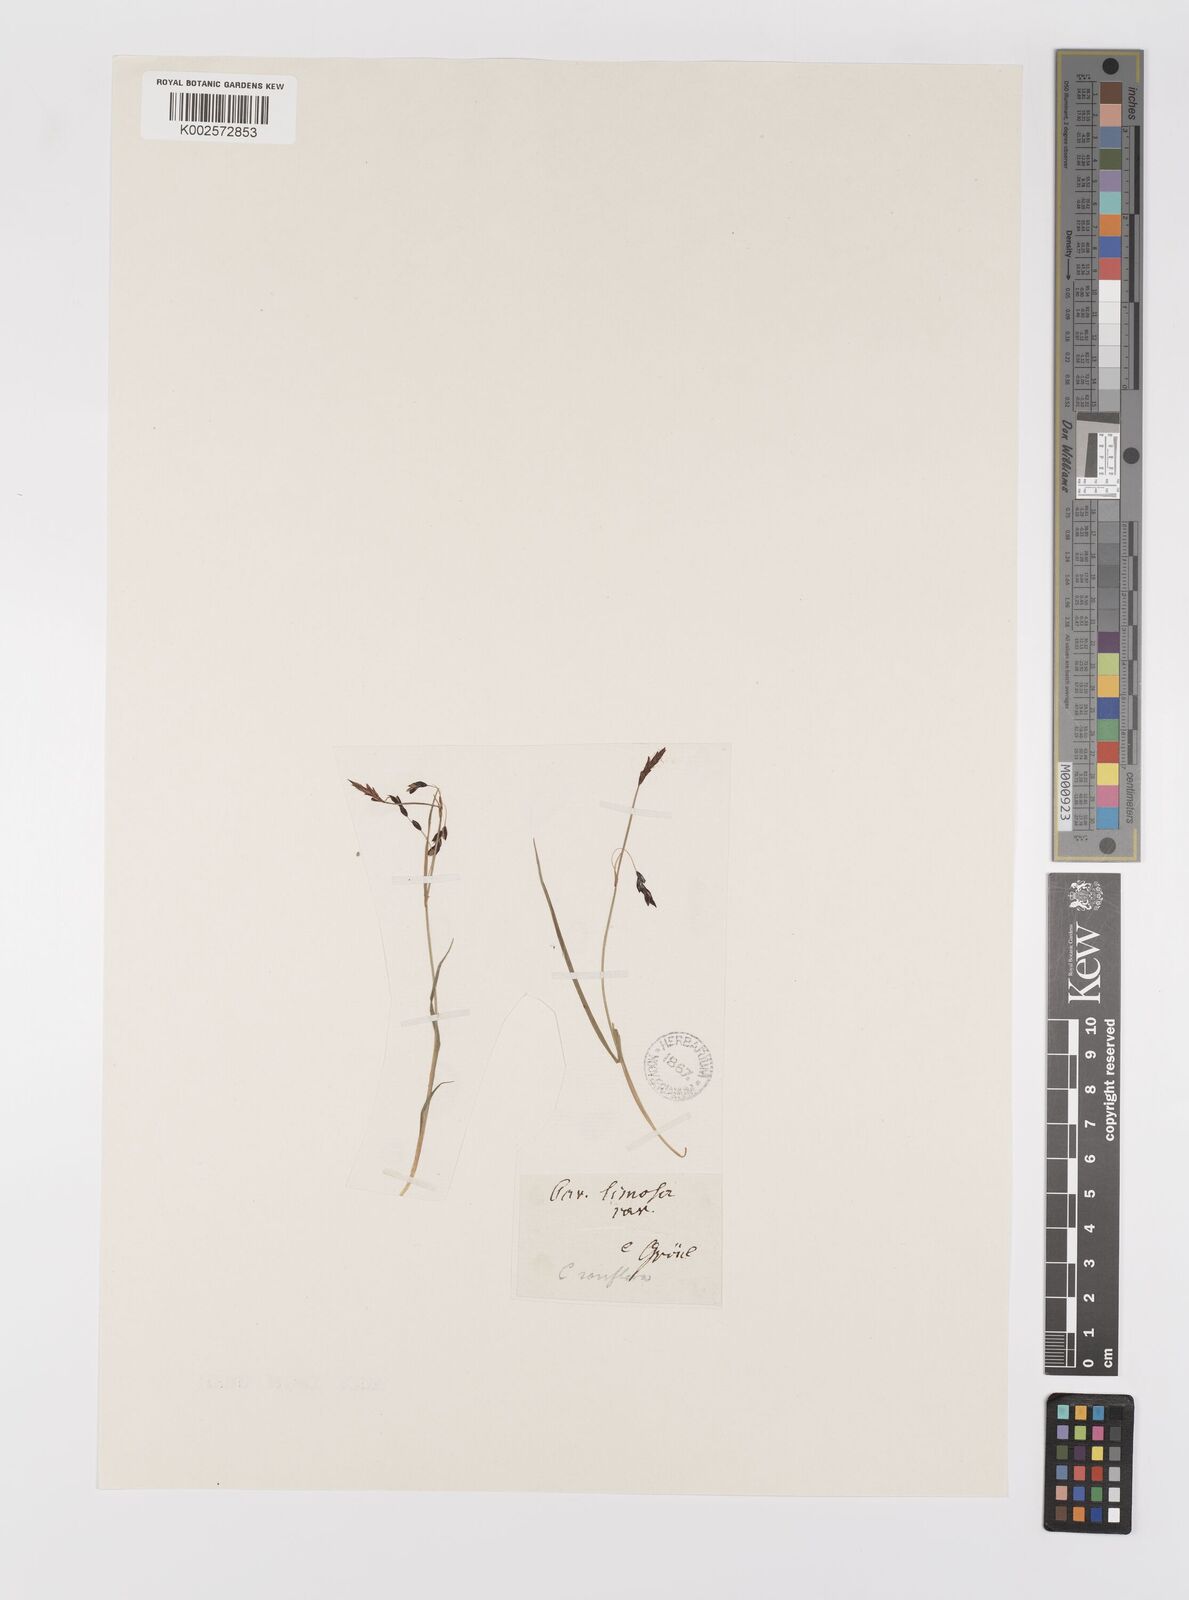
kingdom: Plantae
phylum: Tracheophyta
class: Liliopsida
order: Poales
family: Cyperaceae
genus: Carex
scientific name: Carex rariflora
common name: Loose-flowered alpine sedge
